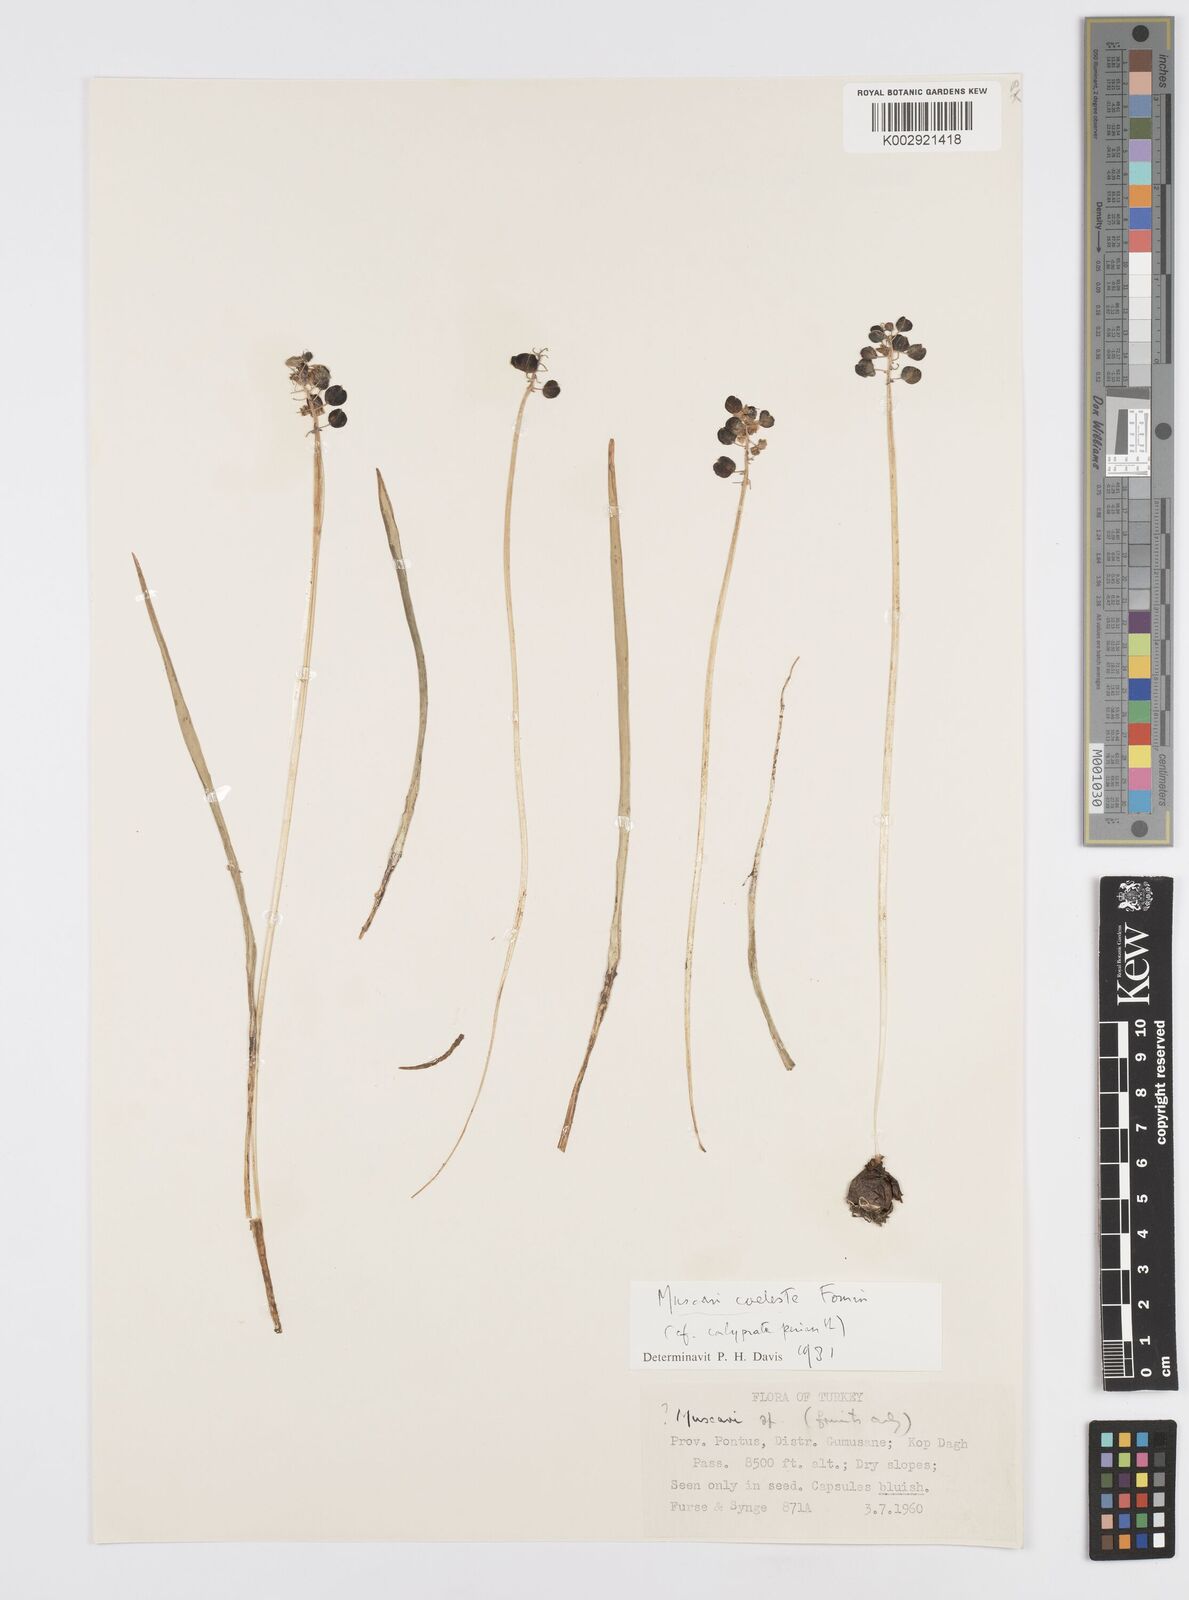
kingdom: Plantae
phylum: Tracheophyta
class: Liliopsida
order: Asparagales
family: Asparagaceae
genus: Muscari
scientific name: Muscari
